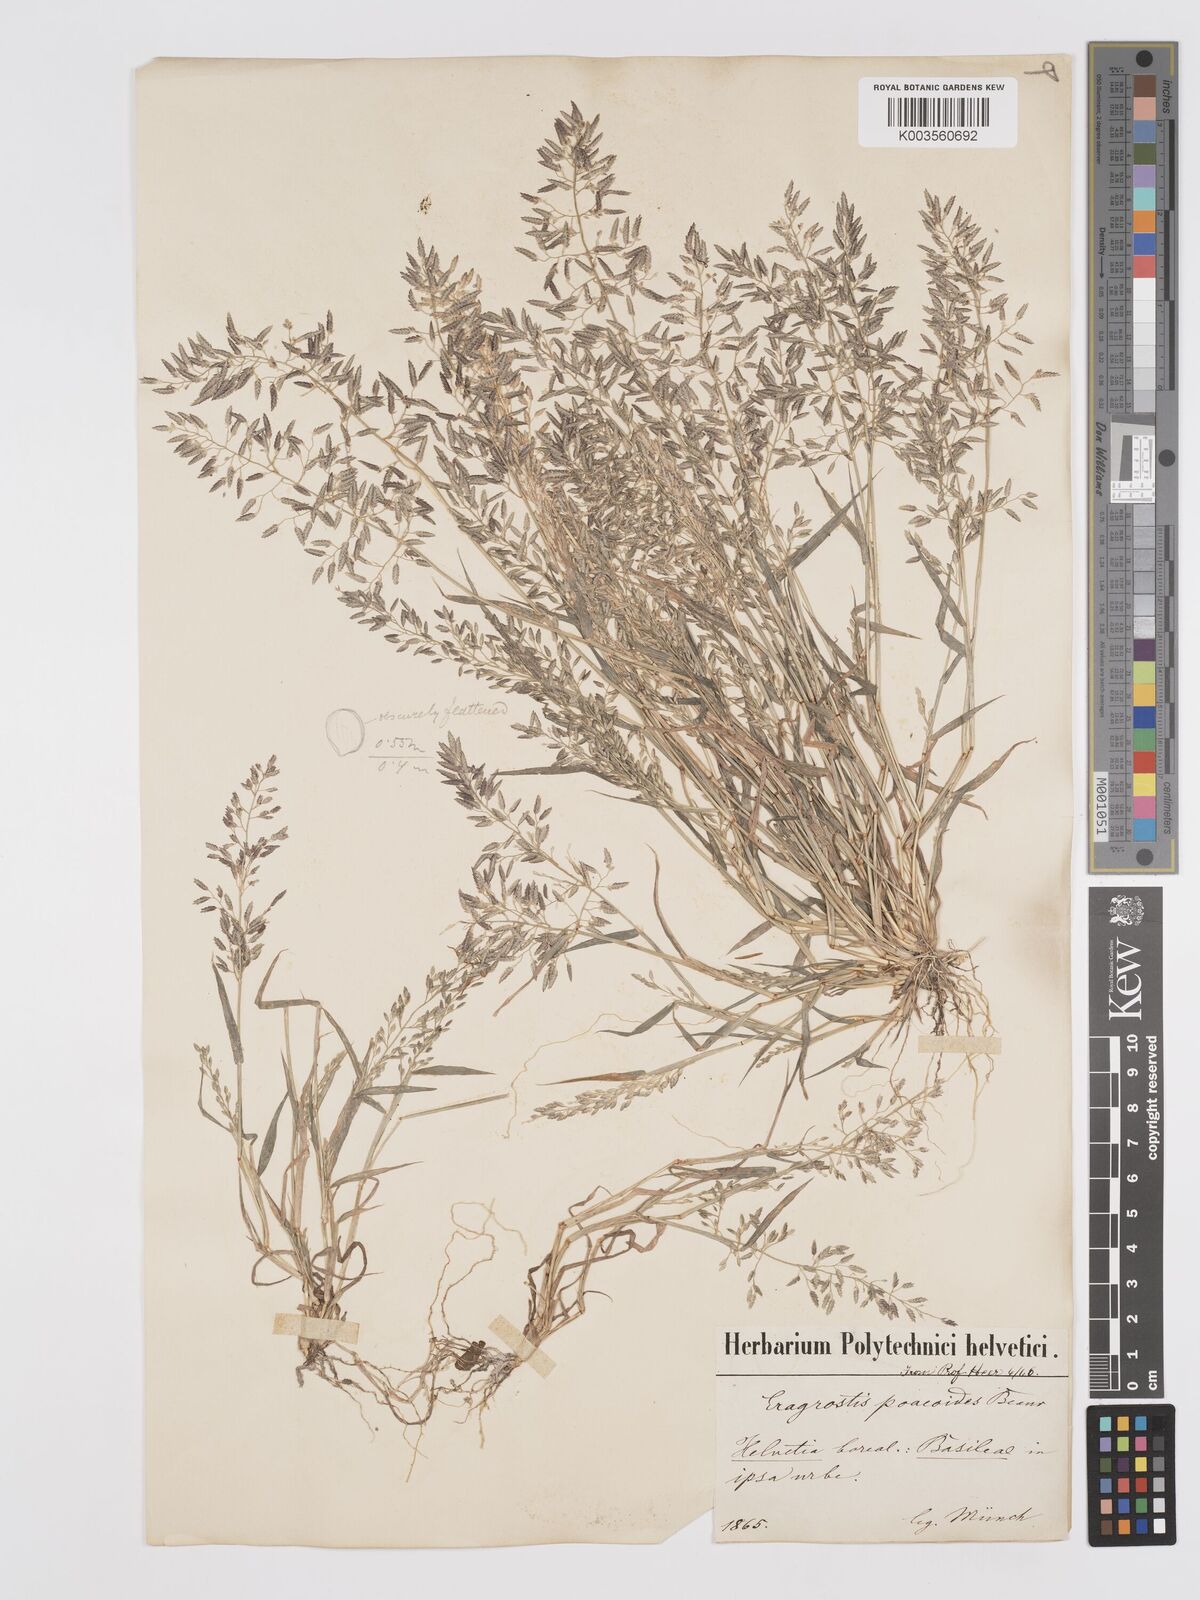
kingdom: Plantae
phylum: Tracheophyta
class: Liliopsida
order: Poales
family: Poaceae
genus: Eragrostis
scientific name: Eragrostis minor
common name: Small love-grass
